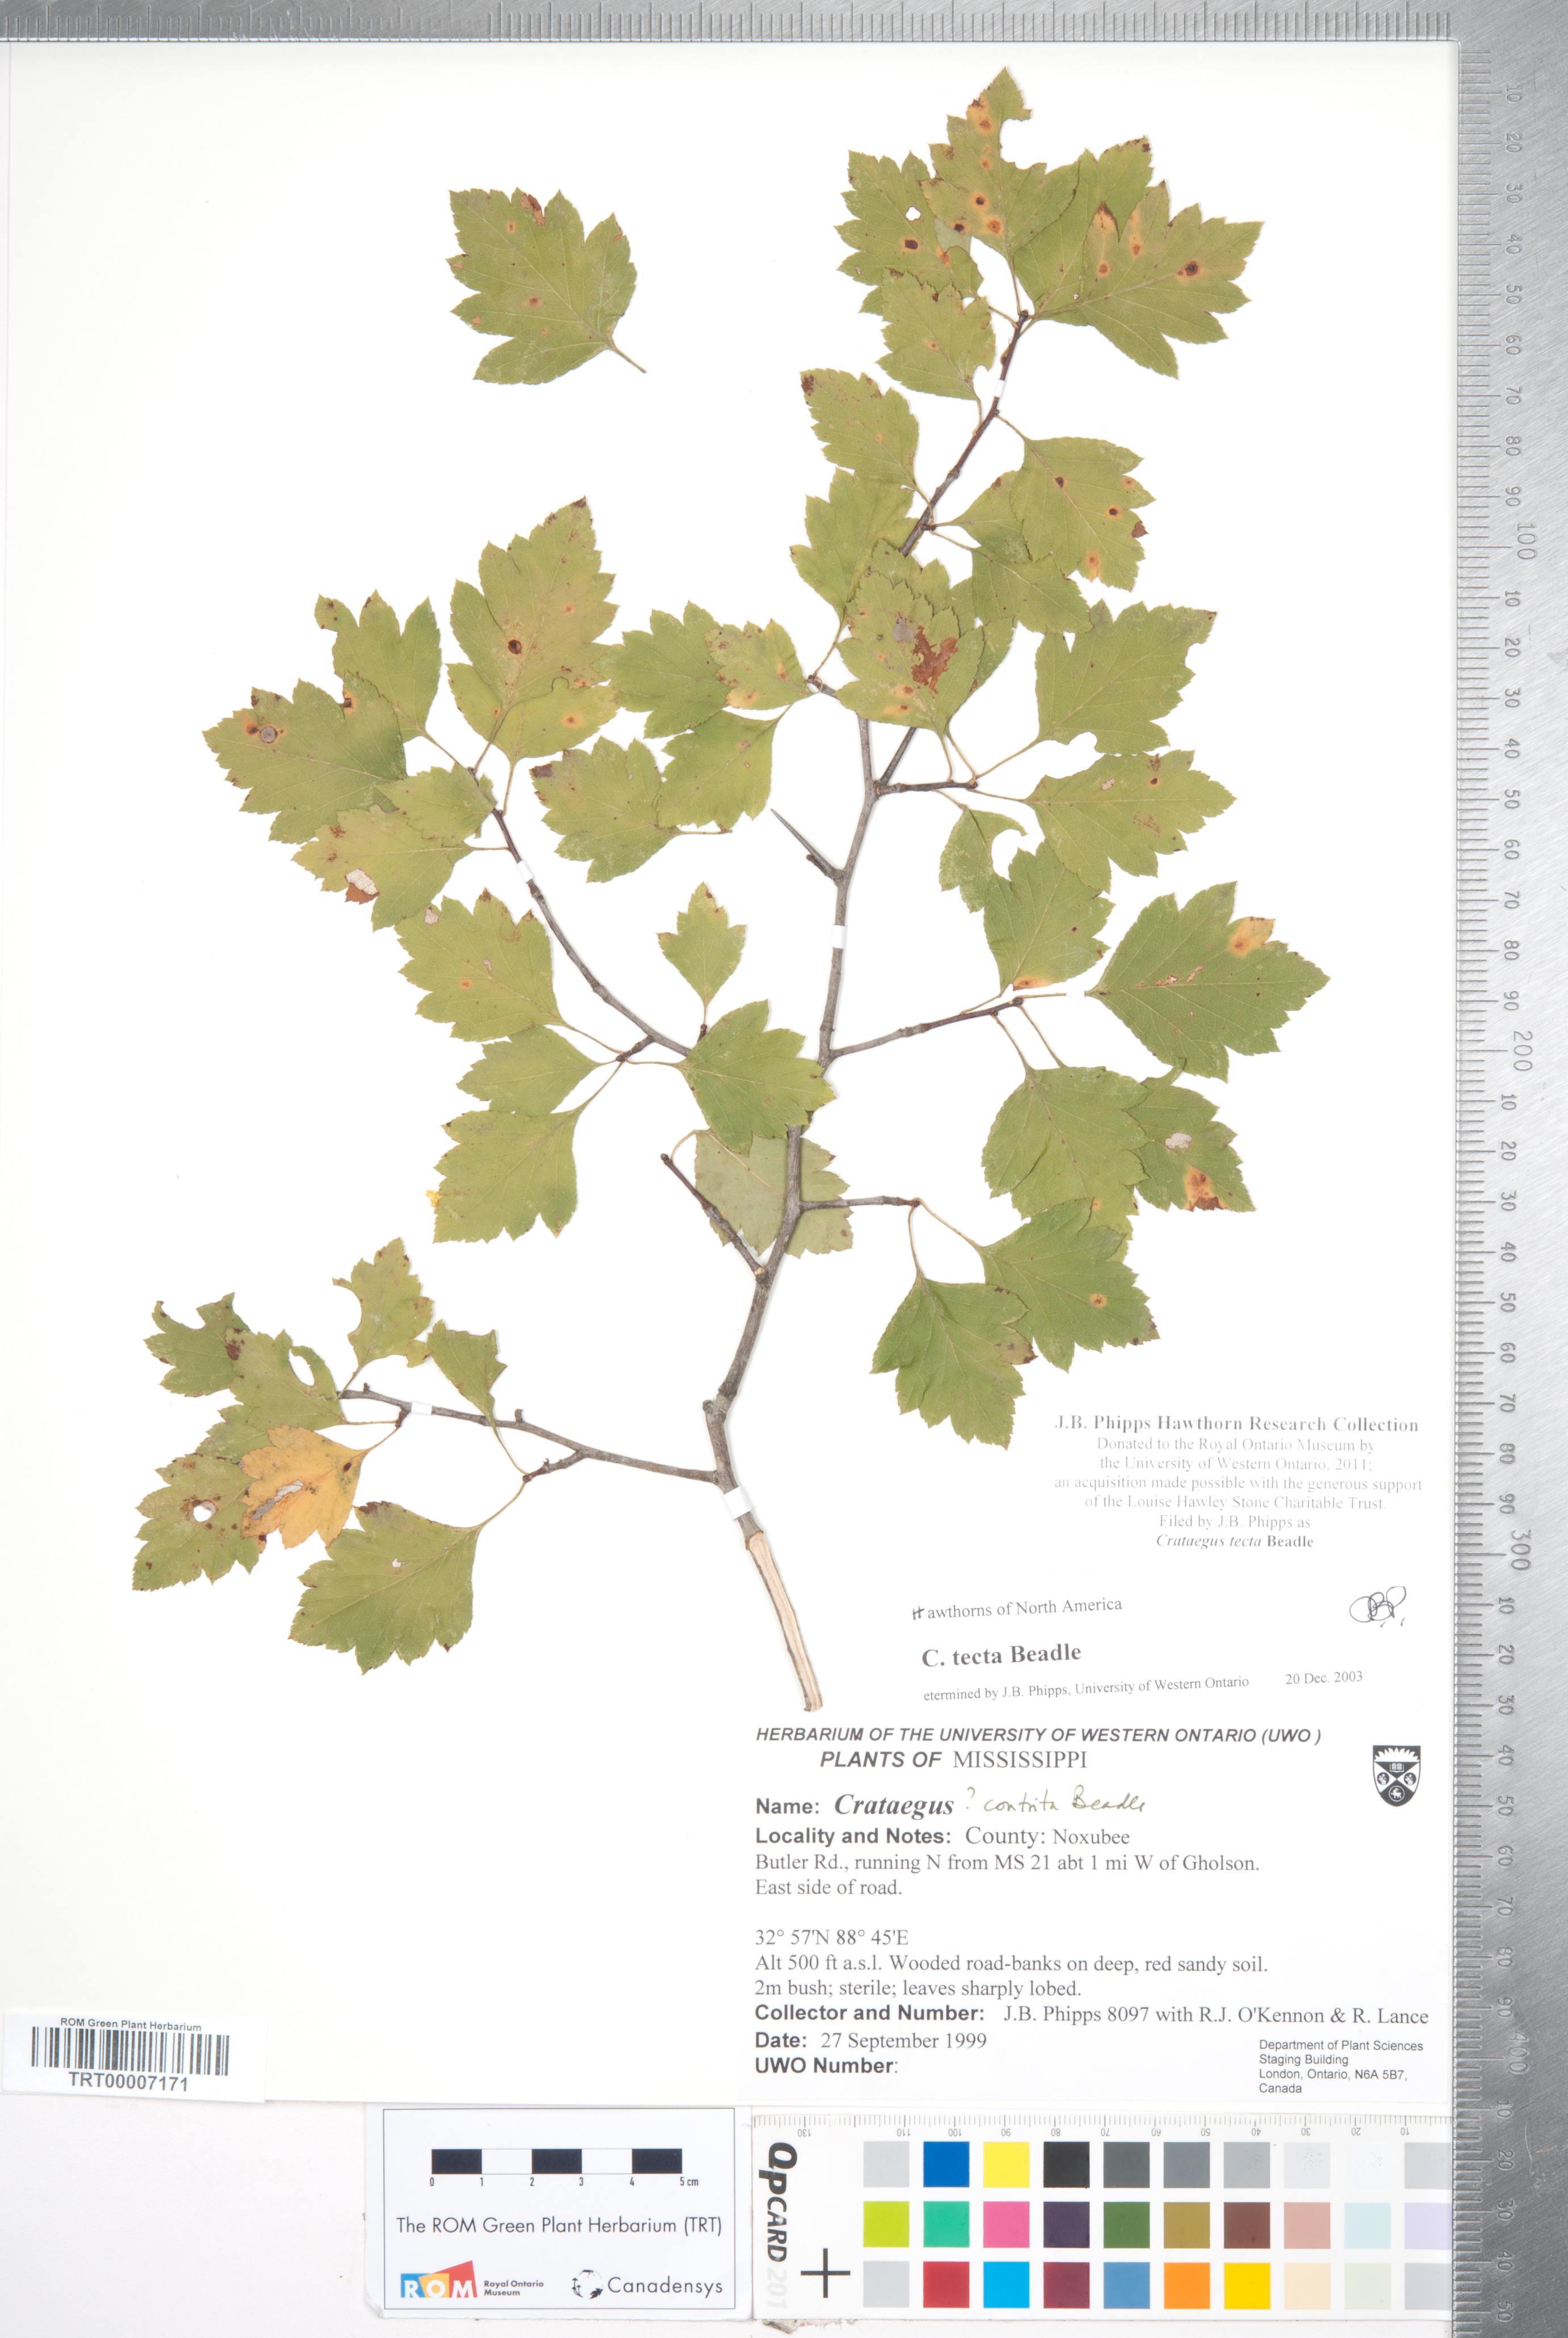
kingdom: Plantae
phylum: Tracheophyta
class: Magnoliopsida
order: Rosales
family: Rosaceae
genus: Crataegus
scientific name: Crataegus pulcherrima
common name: Beautiful hawthorn
